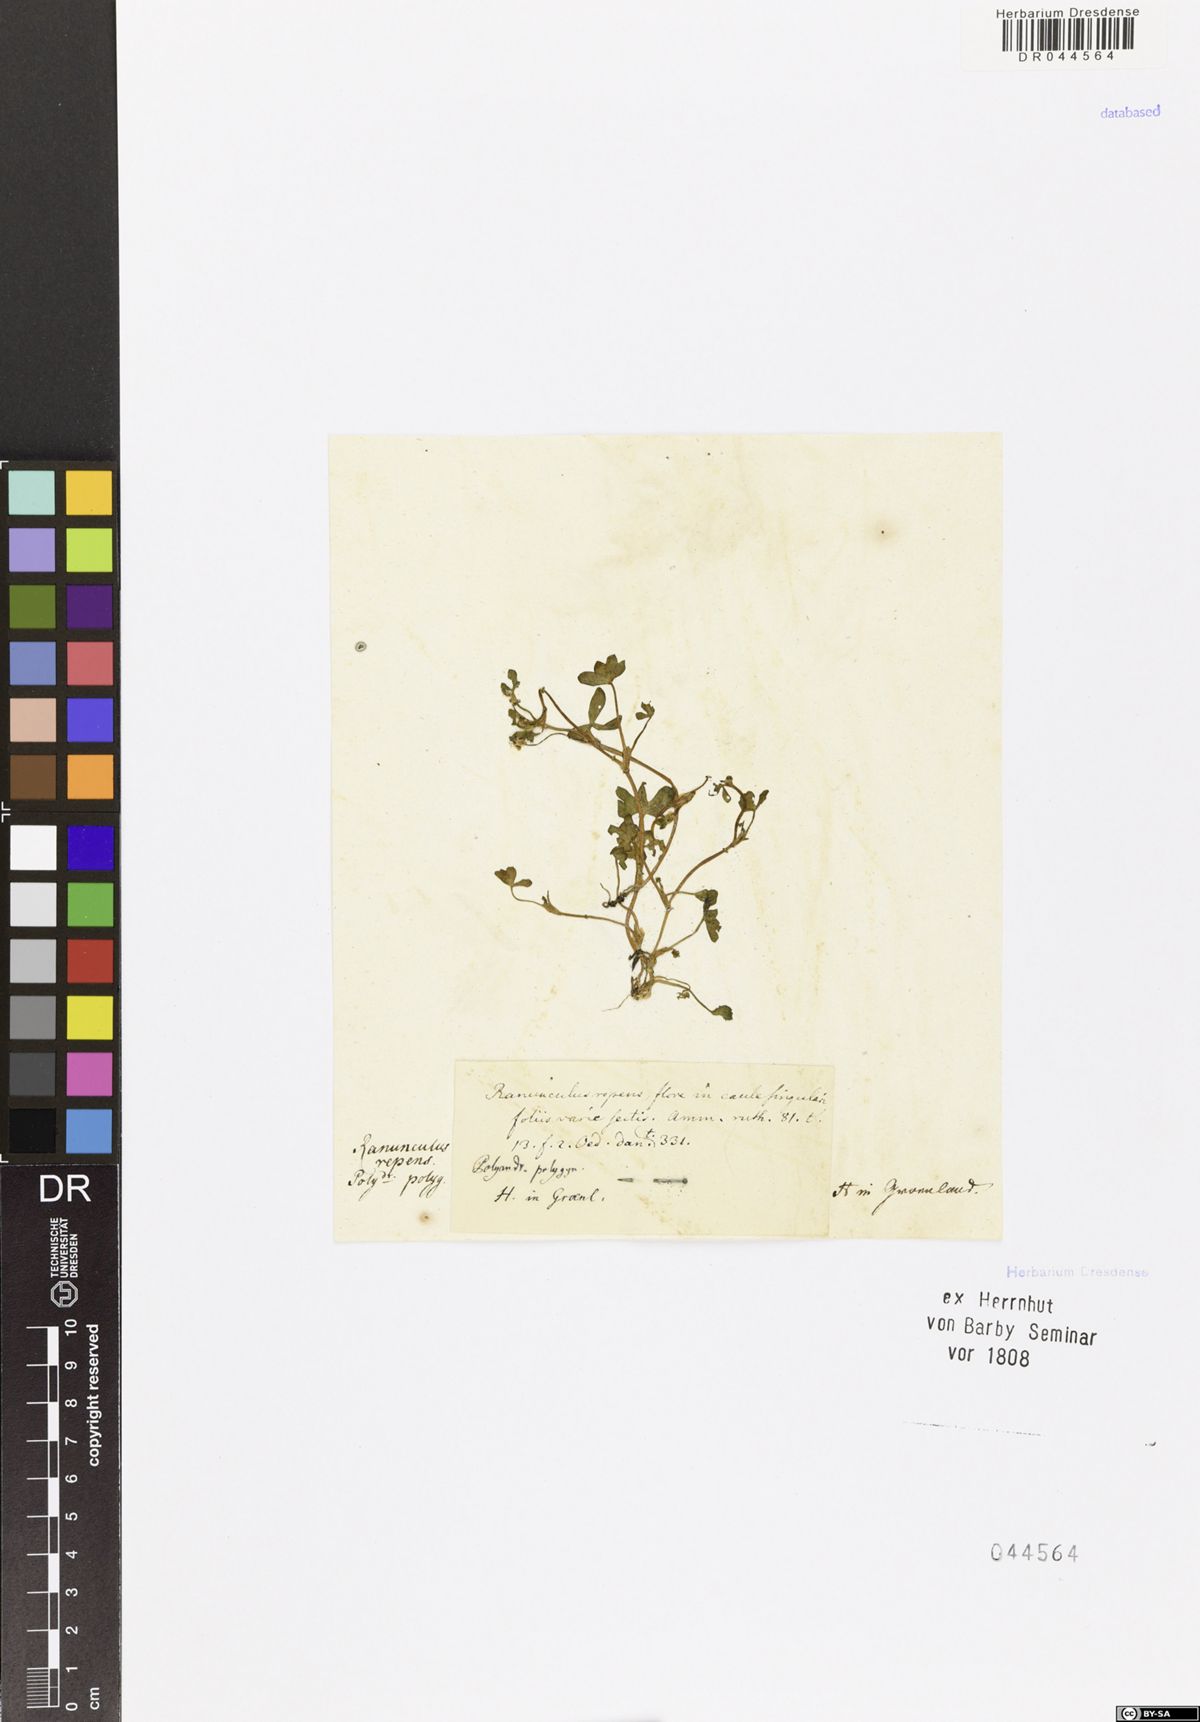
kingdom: Plantae
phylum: Tracheophyta
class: Magnoliopsida
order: Ranunculales
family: Ranunculaceae
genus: Ranunculus
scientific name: Ranunculus repens
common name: Creeping buttercup
